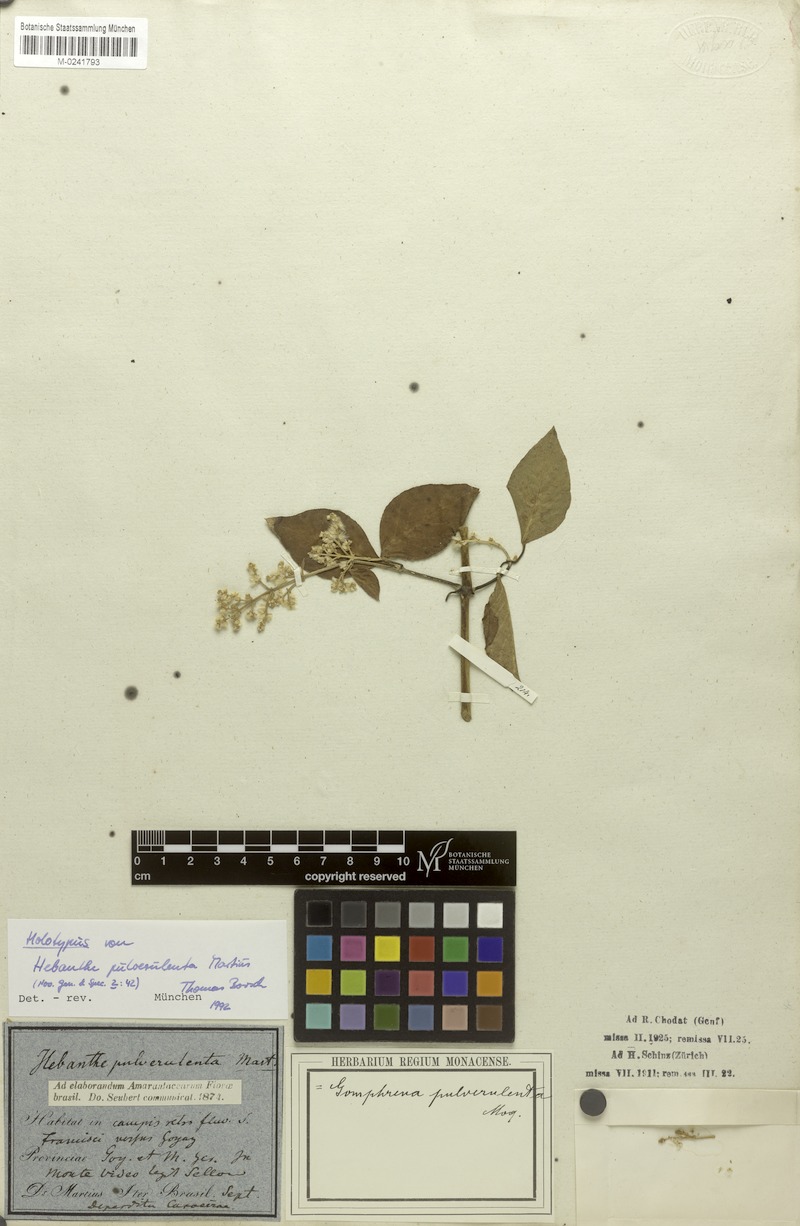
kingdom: Plantae
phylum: Tracheophyta
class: Magnoliopsida
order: Caryophyllales
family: Amaranthaceae
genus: Hebanthe
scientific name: Hebanthe pulverulenta
